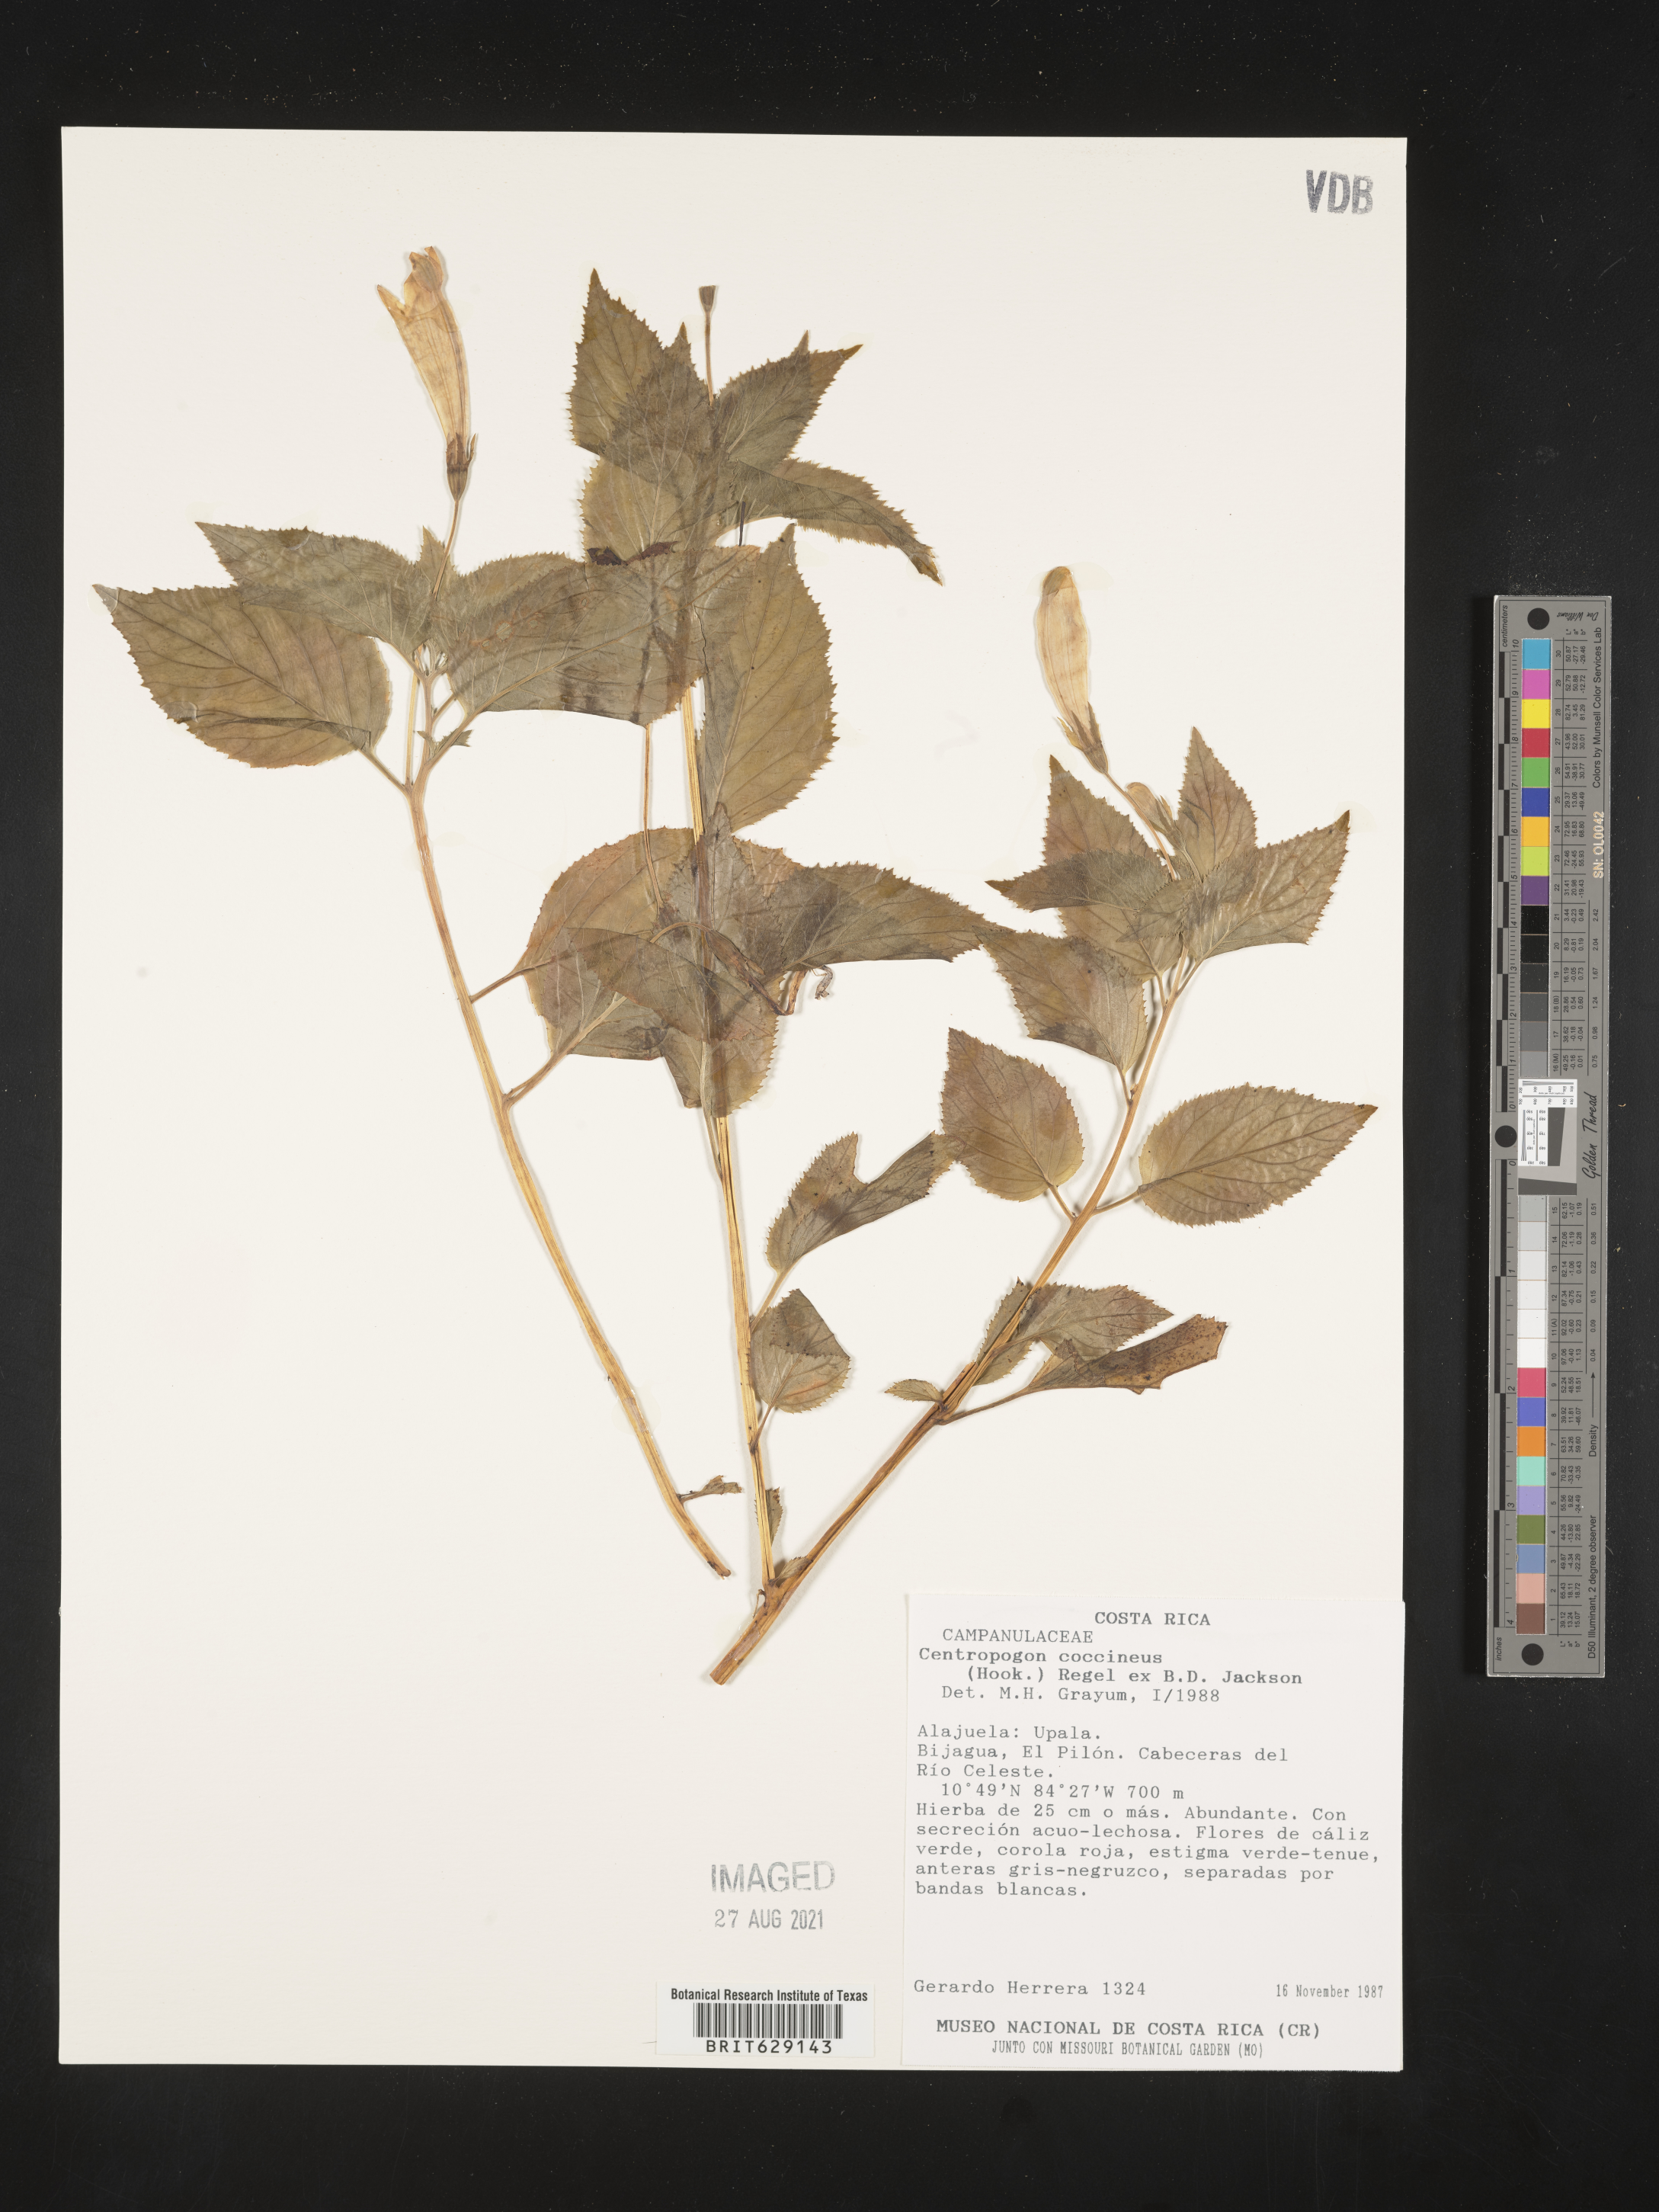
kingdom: Plantae
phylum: Tracheophyta
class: Magnoliopsida
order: Asterales
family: Campanulaceae
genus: Centropogon
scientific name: Centropogon coccineus
